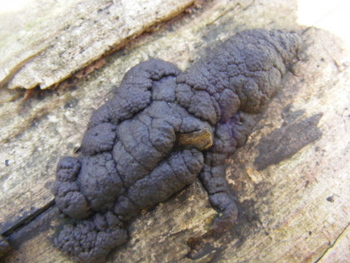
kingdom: Fungi
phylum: Ascomycota
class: Sordariomycetes
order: Xylariales
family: Xylariaceae
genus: Kretzschmaria
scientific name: Kretzschmaria deusta
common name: stor kulsvamp
